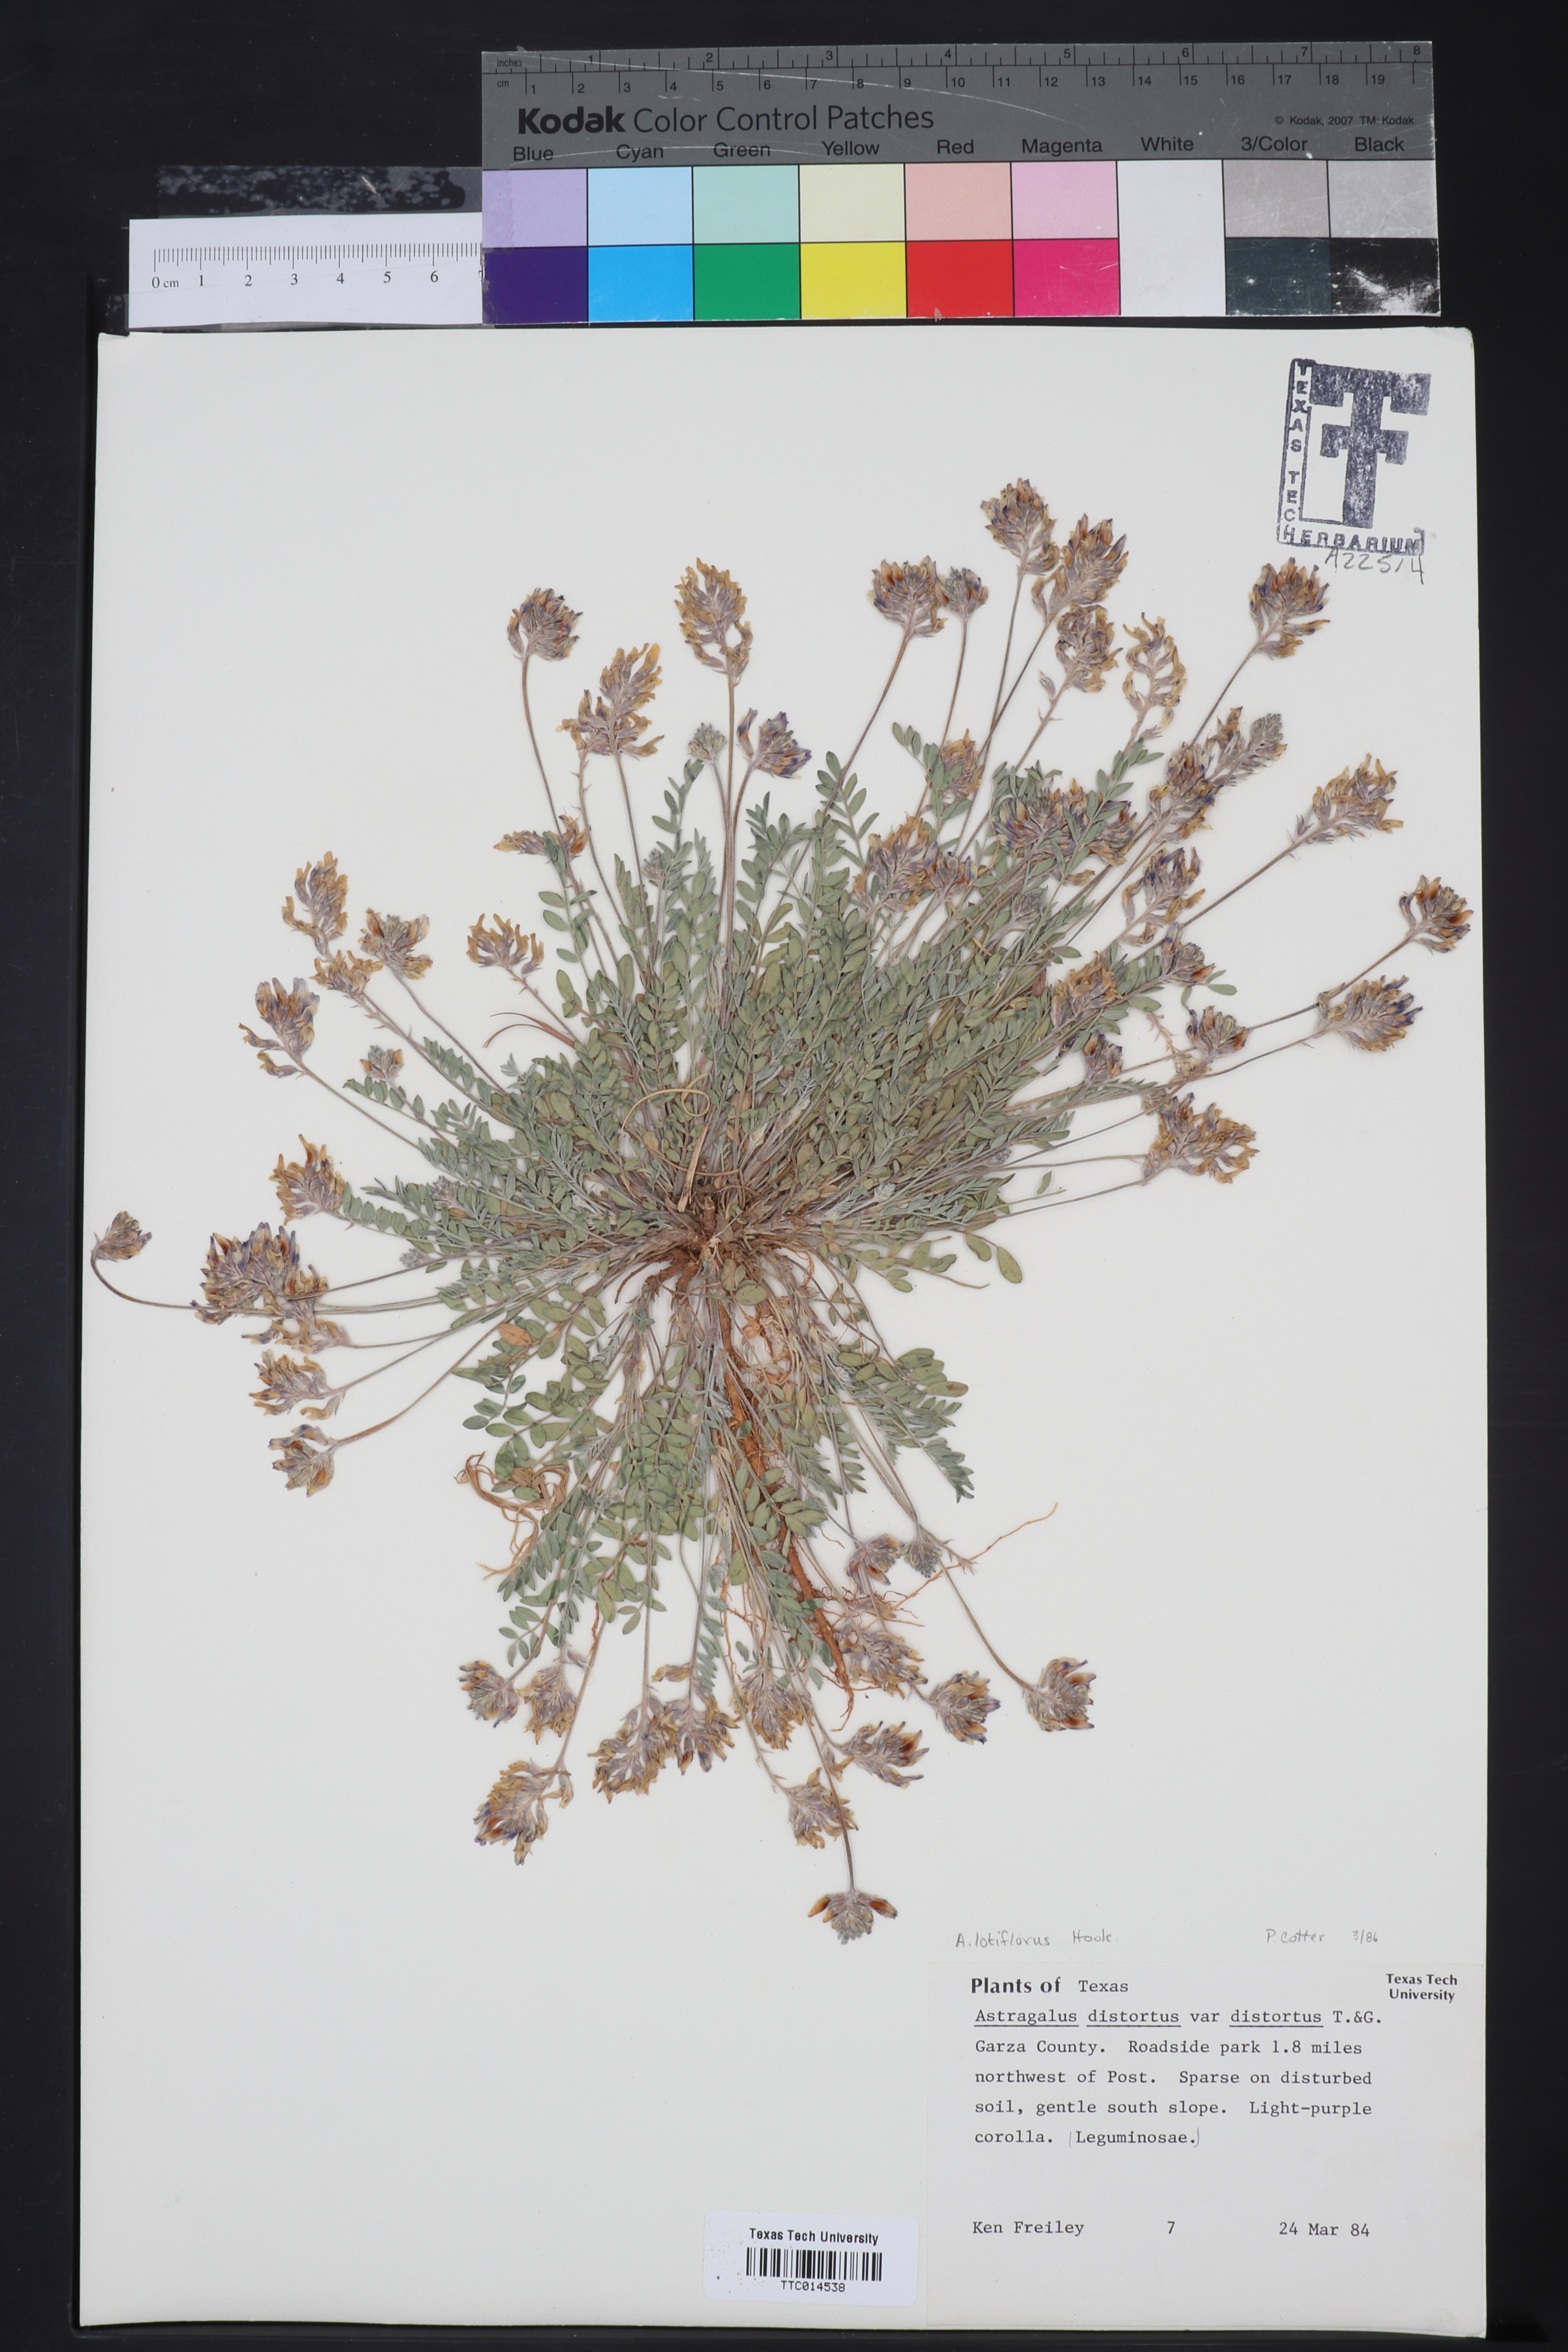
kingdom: Plantae
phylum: Tracheophyta
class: Magnoliopsida
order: Fabales
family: Fabaceae
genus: Astragalus
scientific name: Astragalus distortus
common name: Ozark milk-vetch
